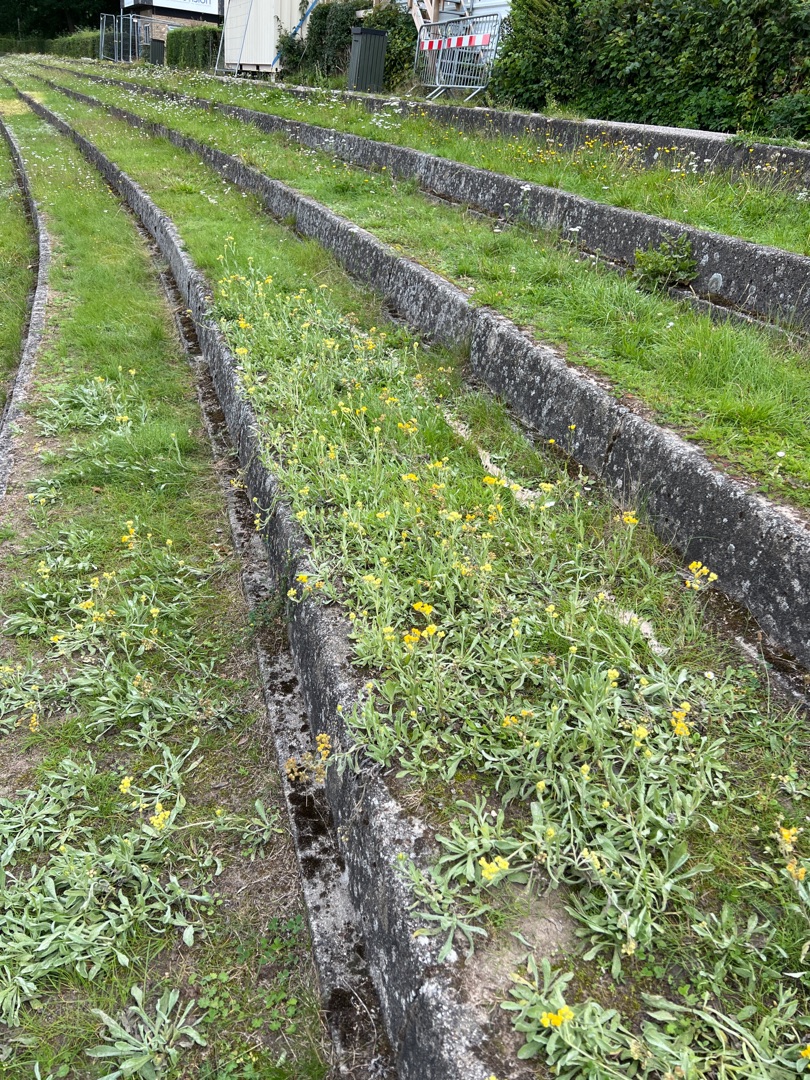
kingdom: Plantae
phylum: Tracheophyta
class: Magnoliopsida
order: Asterales
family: Asteraceae
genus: Helichrysum
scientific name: Helichrysum arenarium
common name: Gul evighedsblomst
